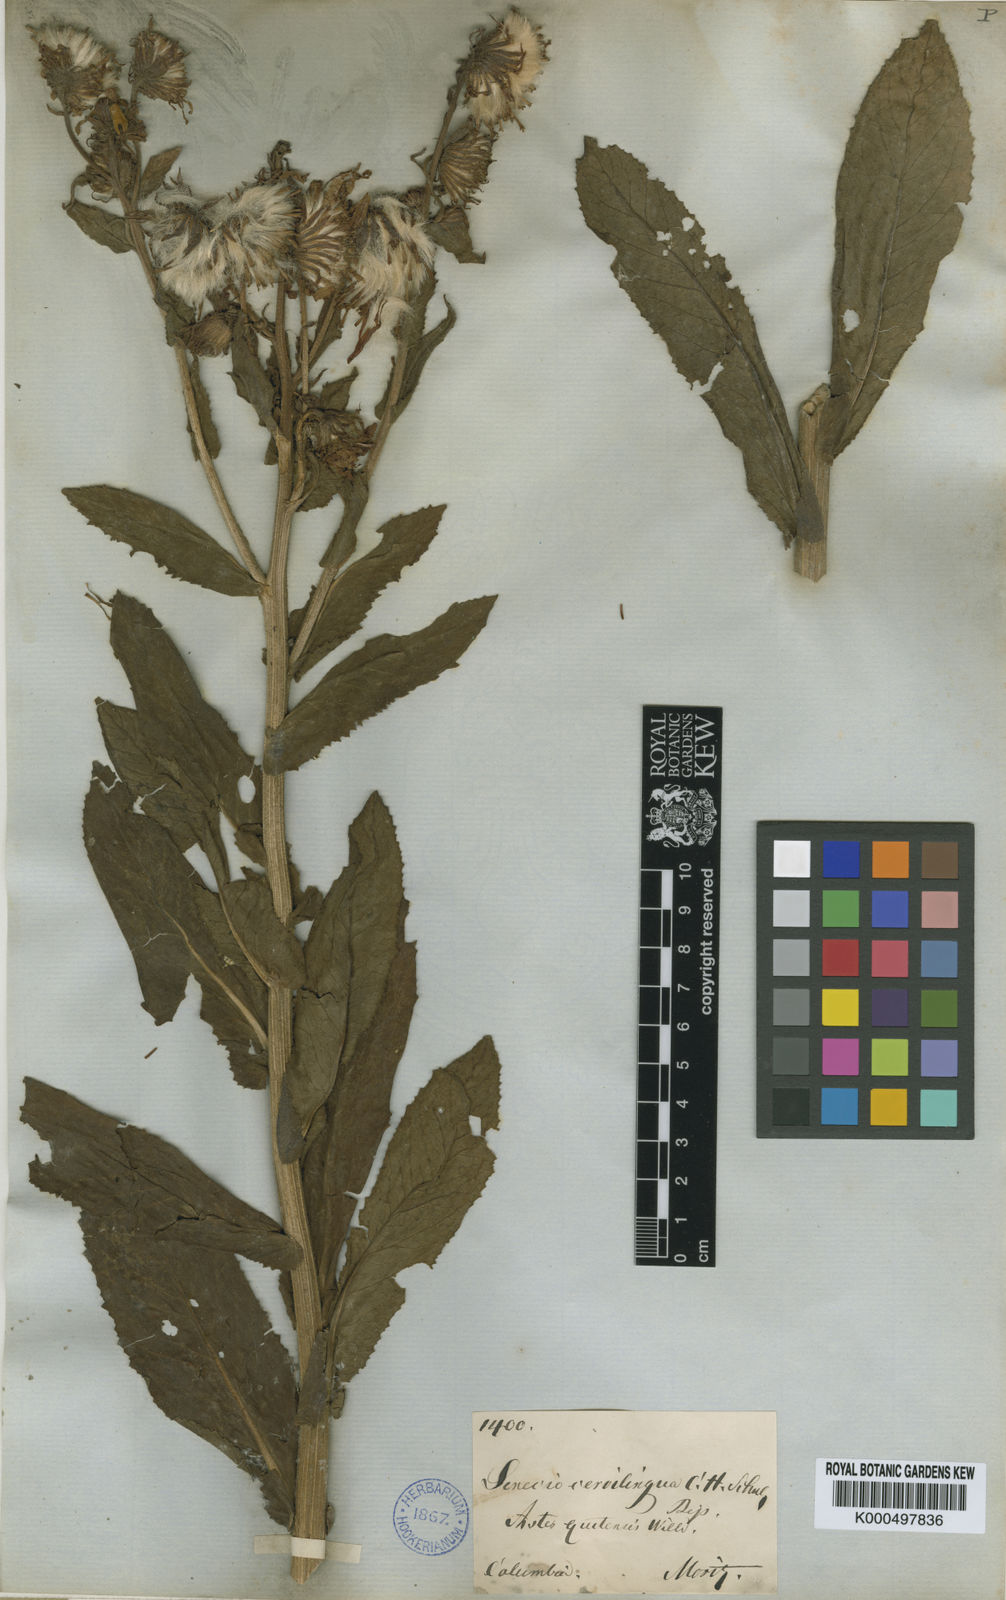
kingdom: Plantae
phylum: Tracheophyta
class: Magnoliopsida
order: Asterales
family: Asteraceae
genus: Senecio
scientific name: Senecio formosus
